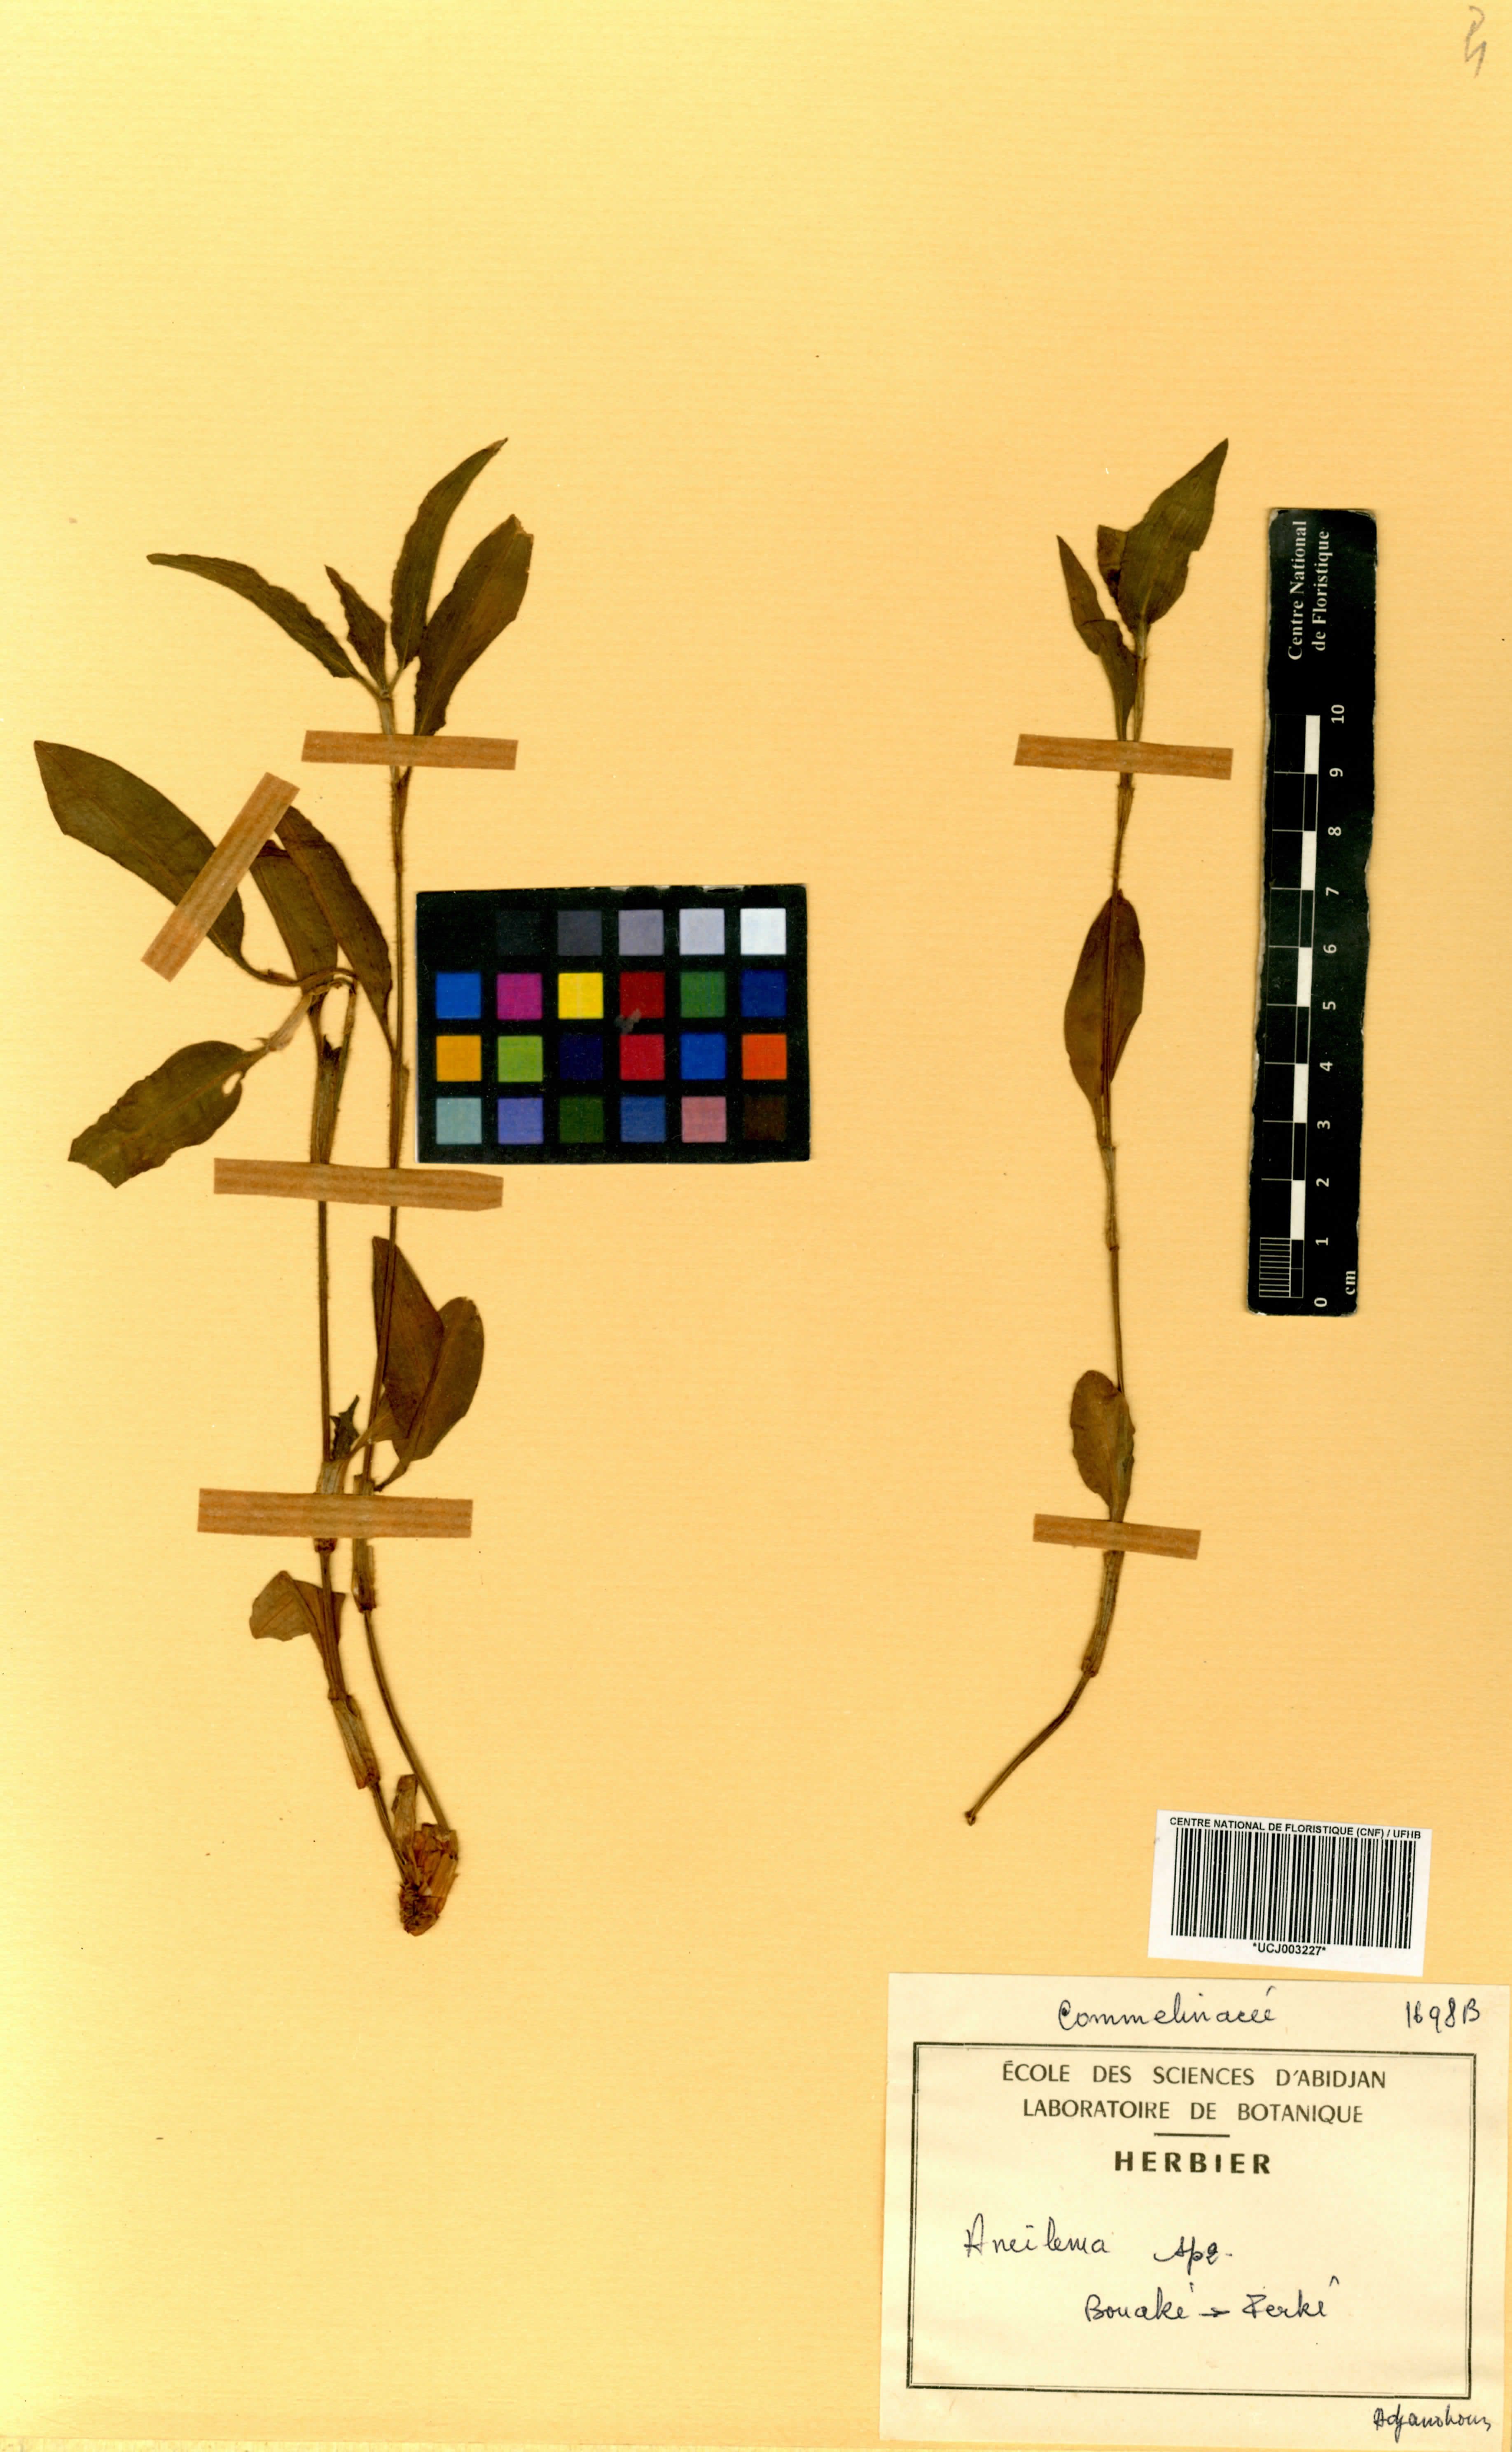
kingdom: Plantae
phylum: Tracheophyta
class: Liliopsida
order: Commelinales
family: Commelinaceae
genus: Aneilema
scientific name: Aneilema
